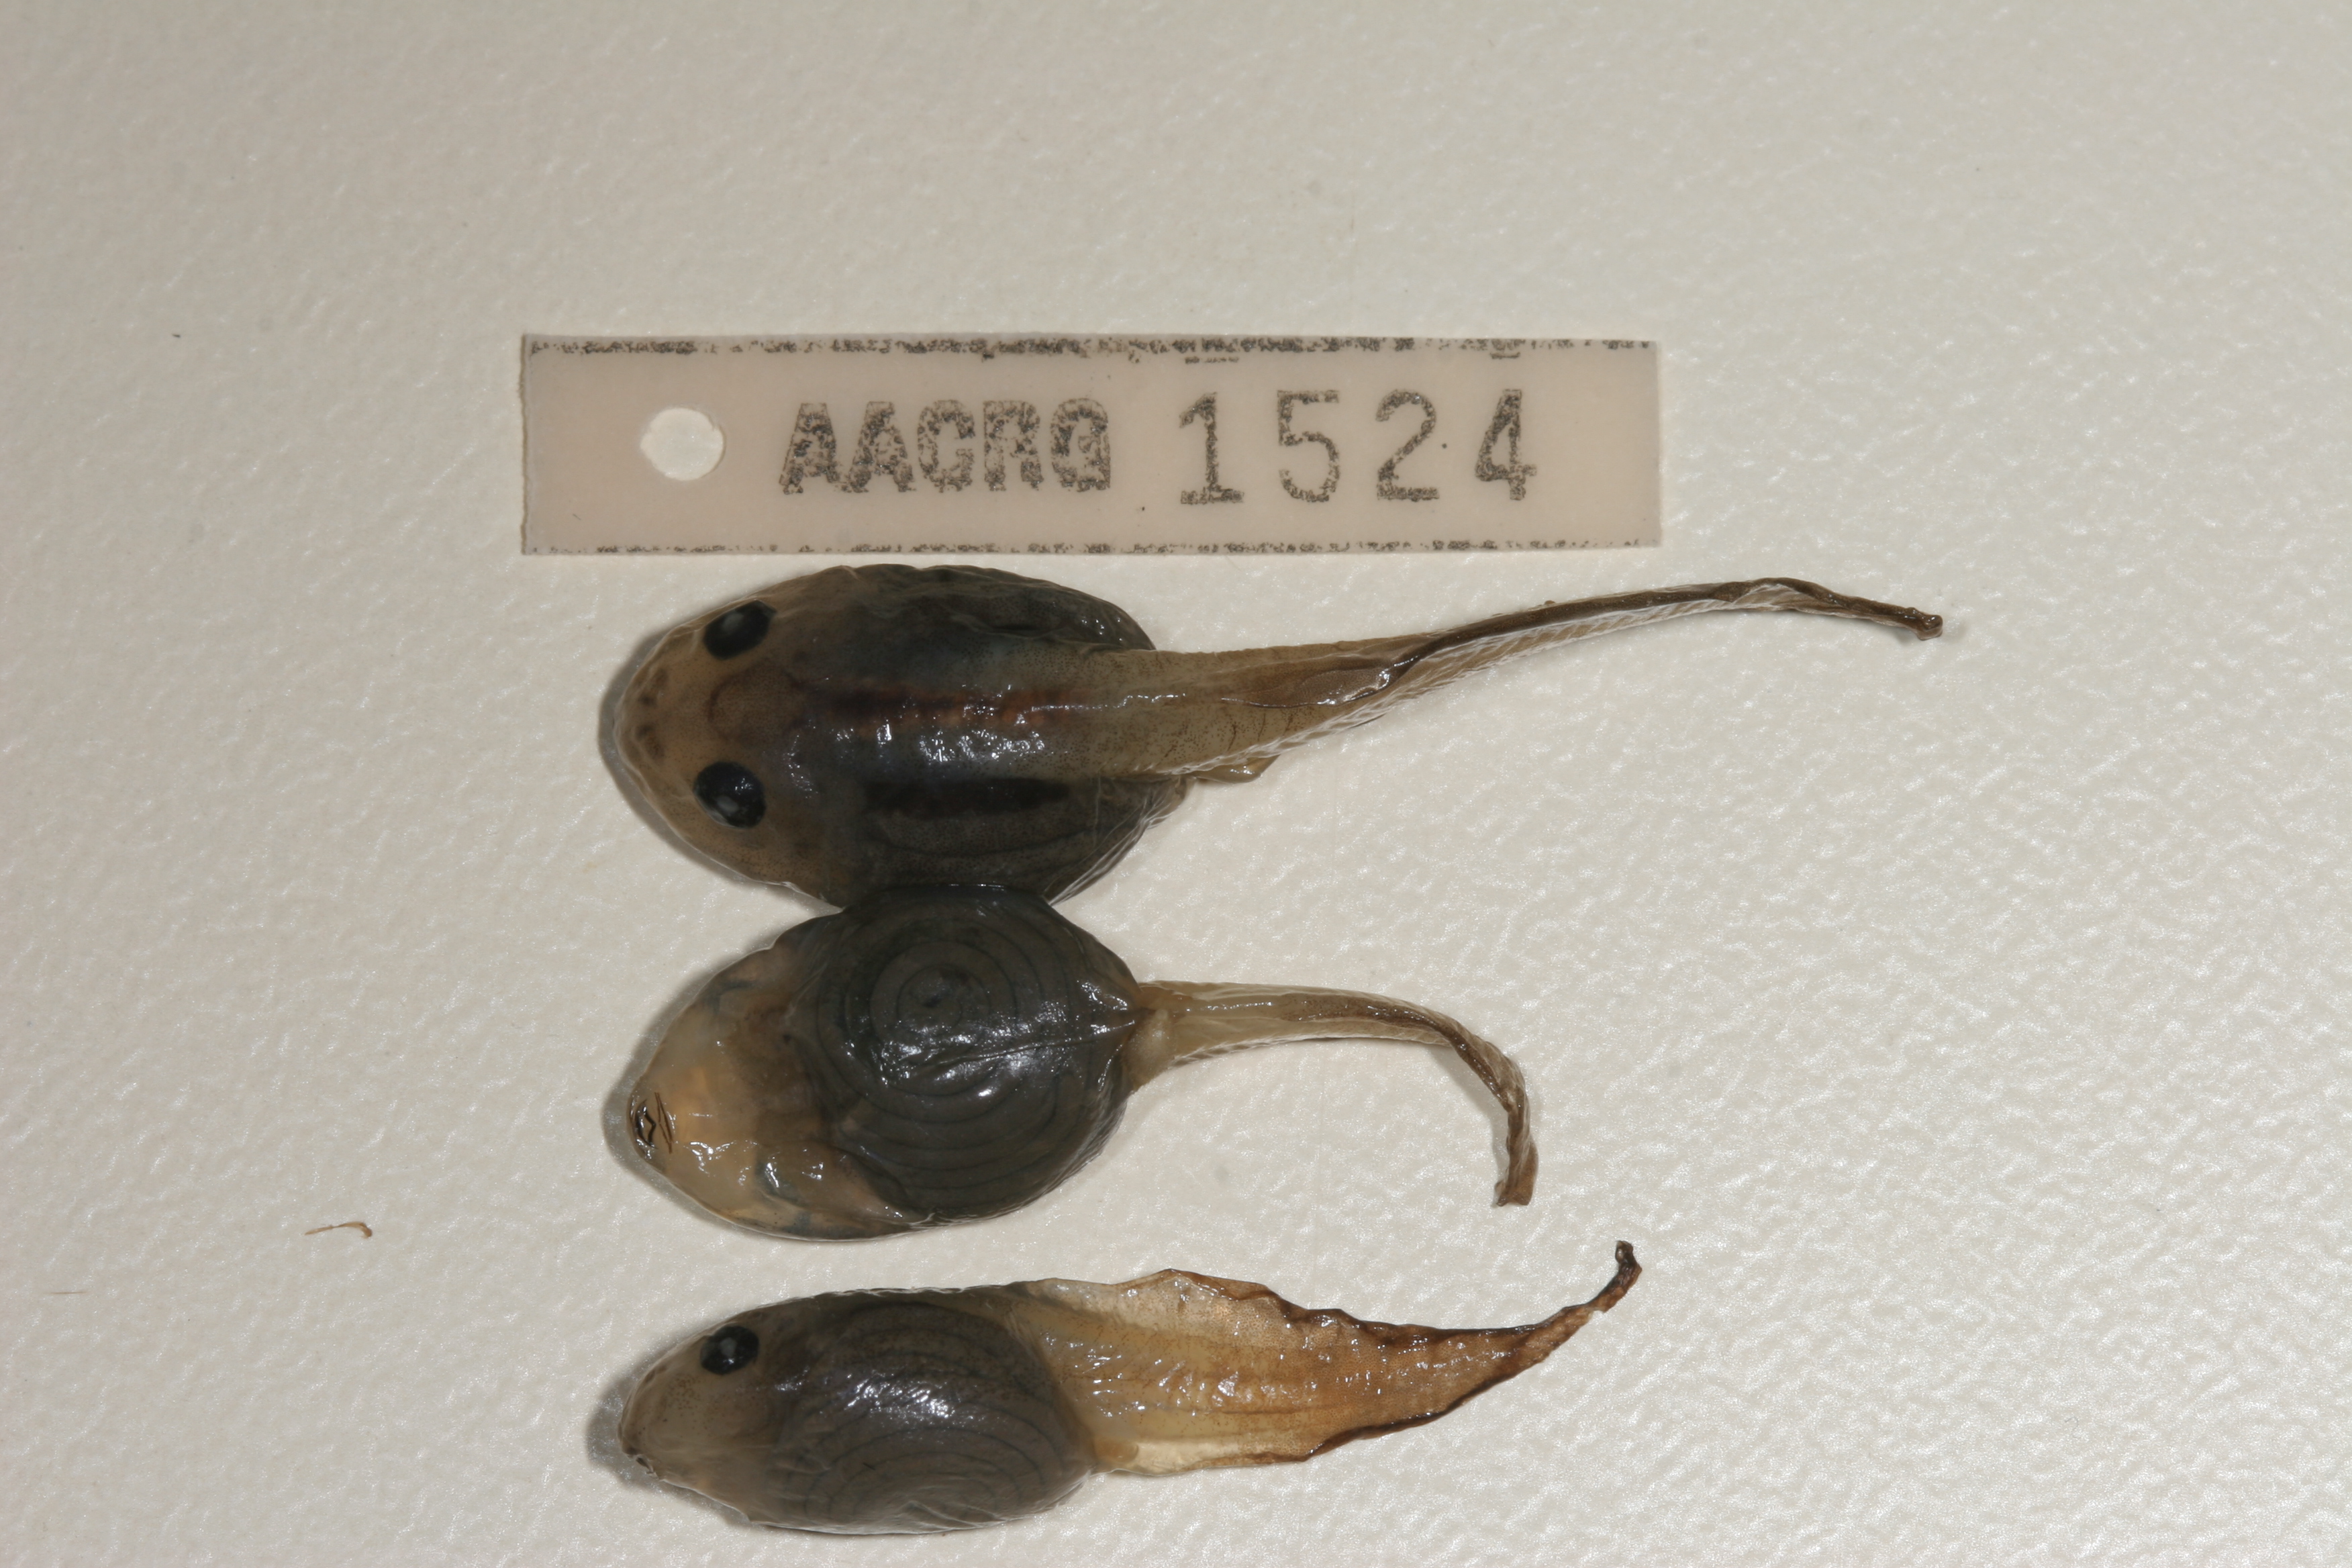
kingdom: Animalia
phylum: Chordata
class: Amphibia
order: Anura
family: Rhacophoridae
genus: Chiromantis
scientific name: Chiromantis xerampelina
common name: African gray treefrog
